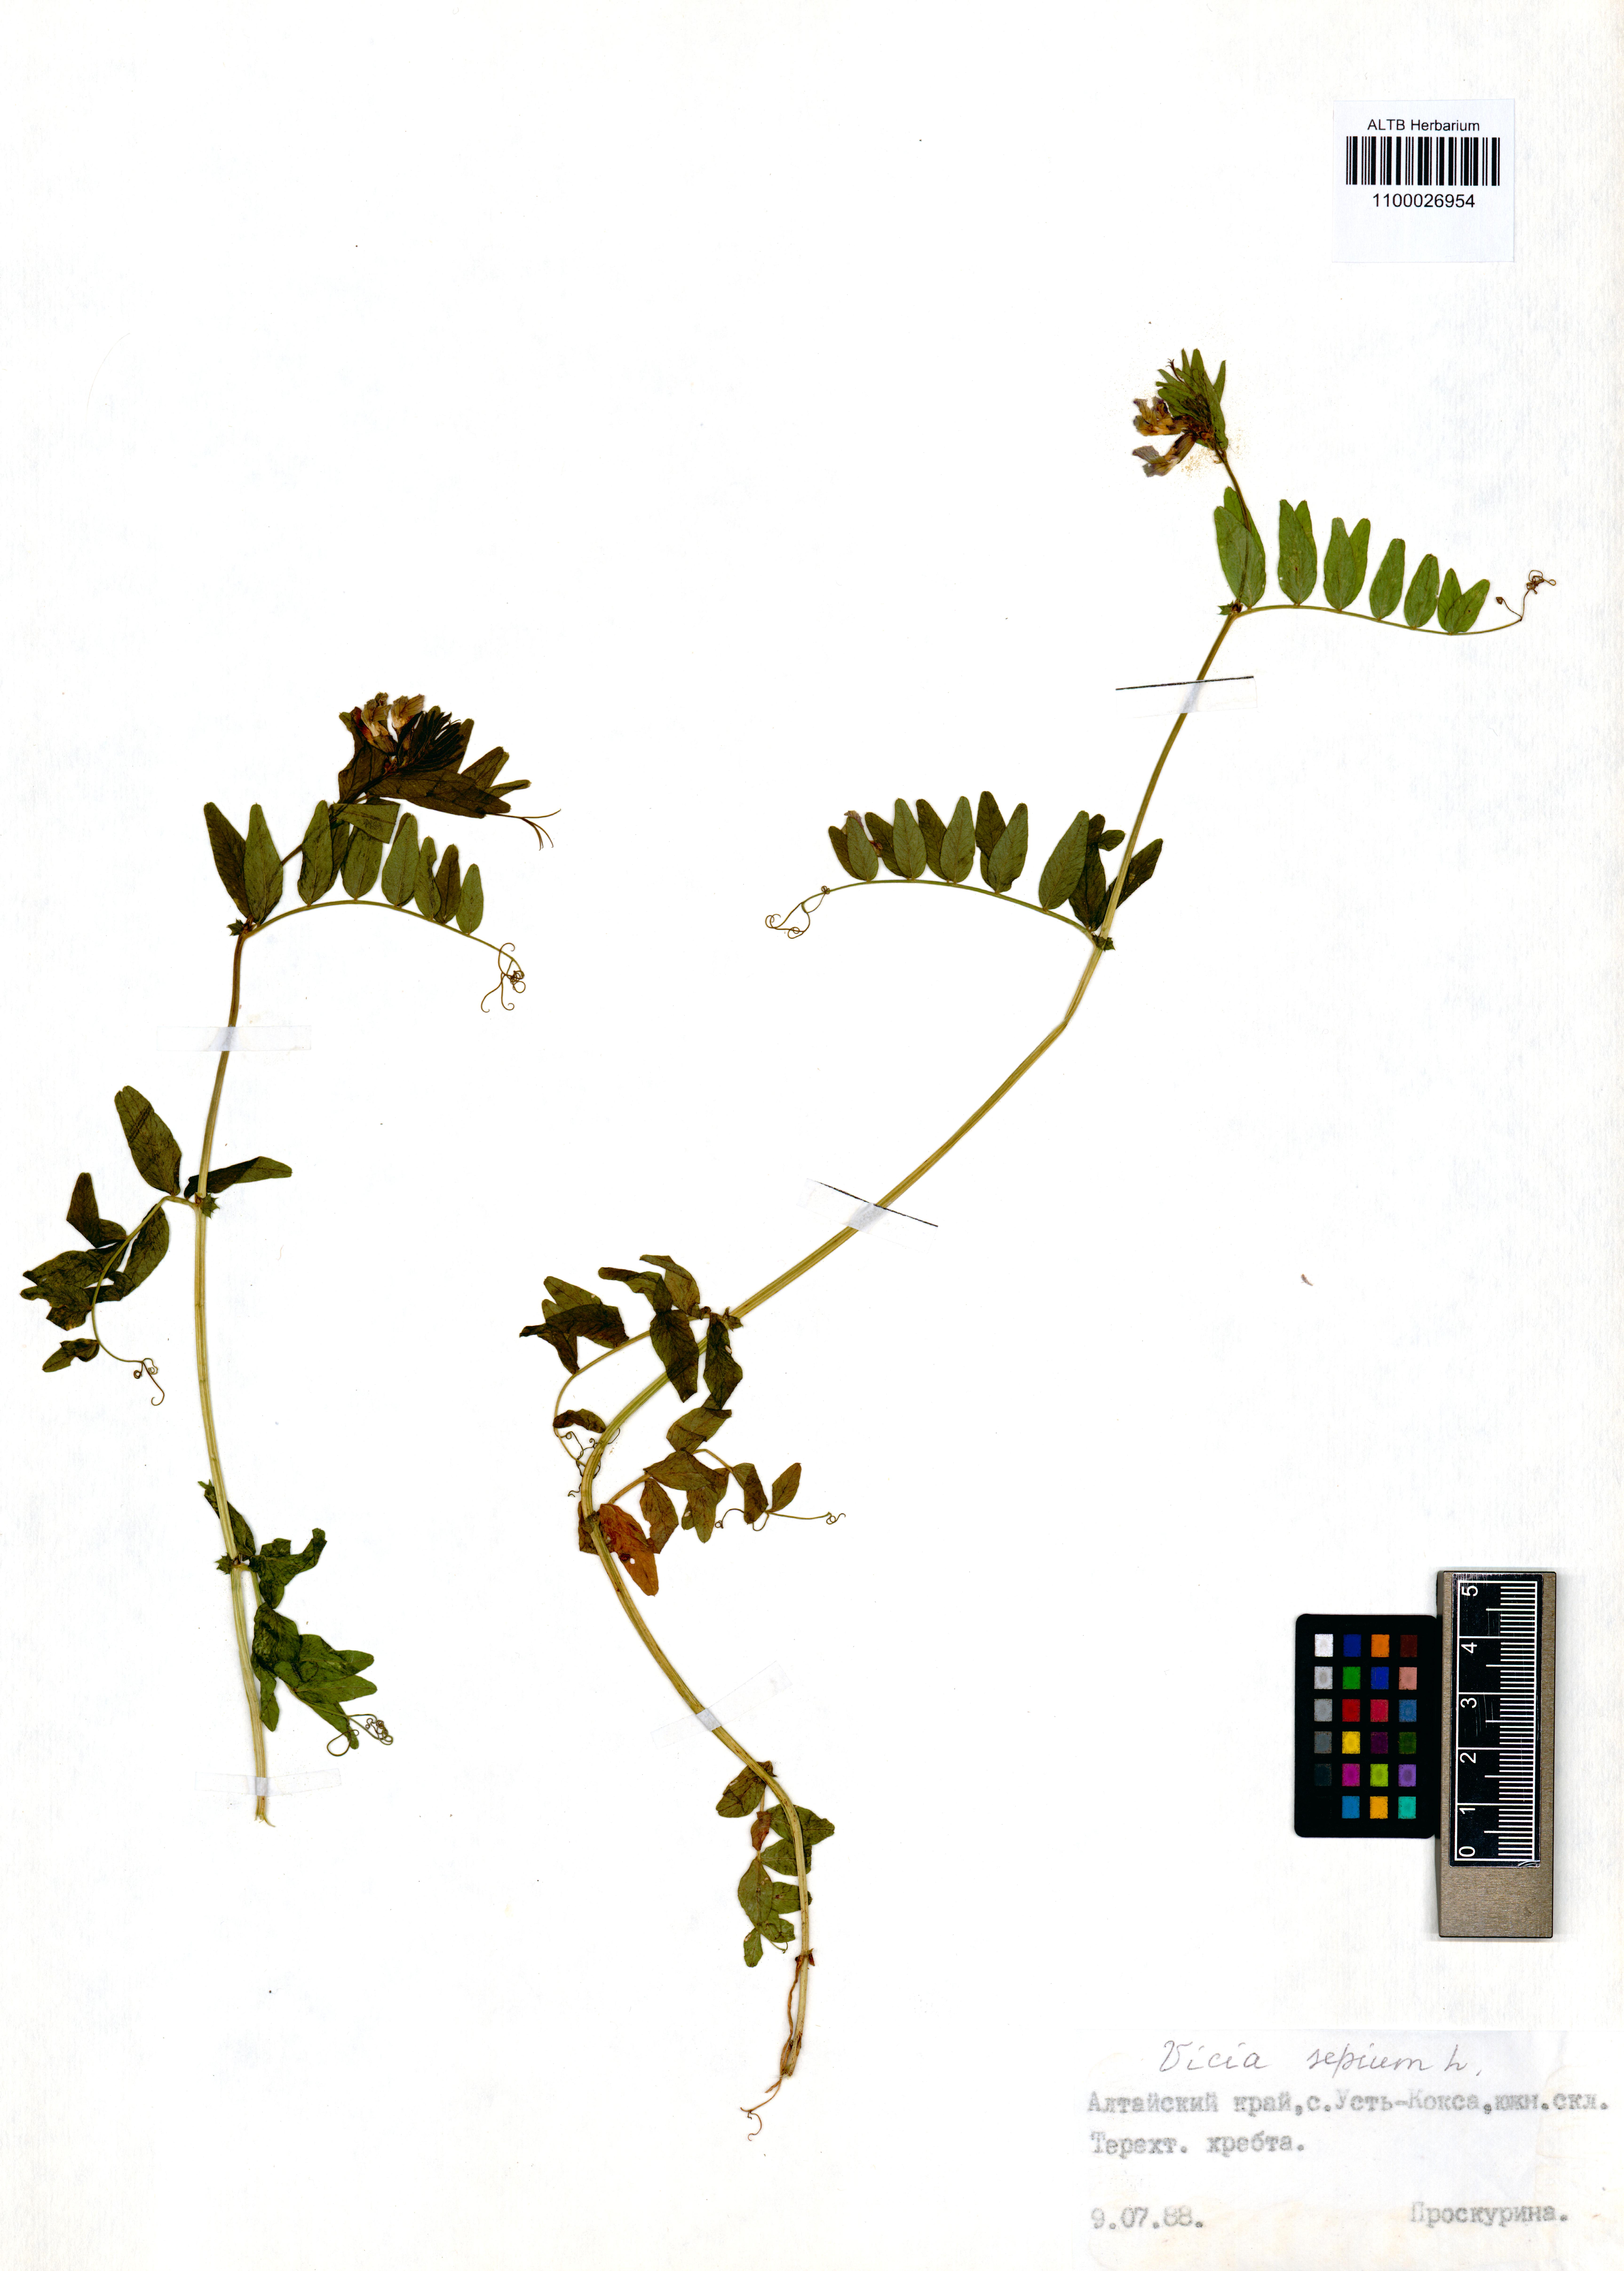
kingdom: Plantae
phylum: Tracheophyta
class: Magnoliopsida
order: Fabales
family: Fabaceae
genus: Vicia
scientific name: Vicia sepium
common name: Bush vetch
